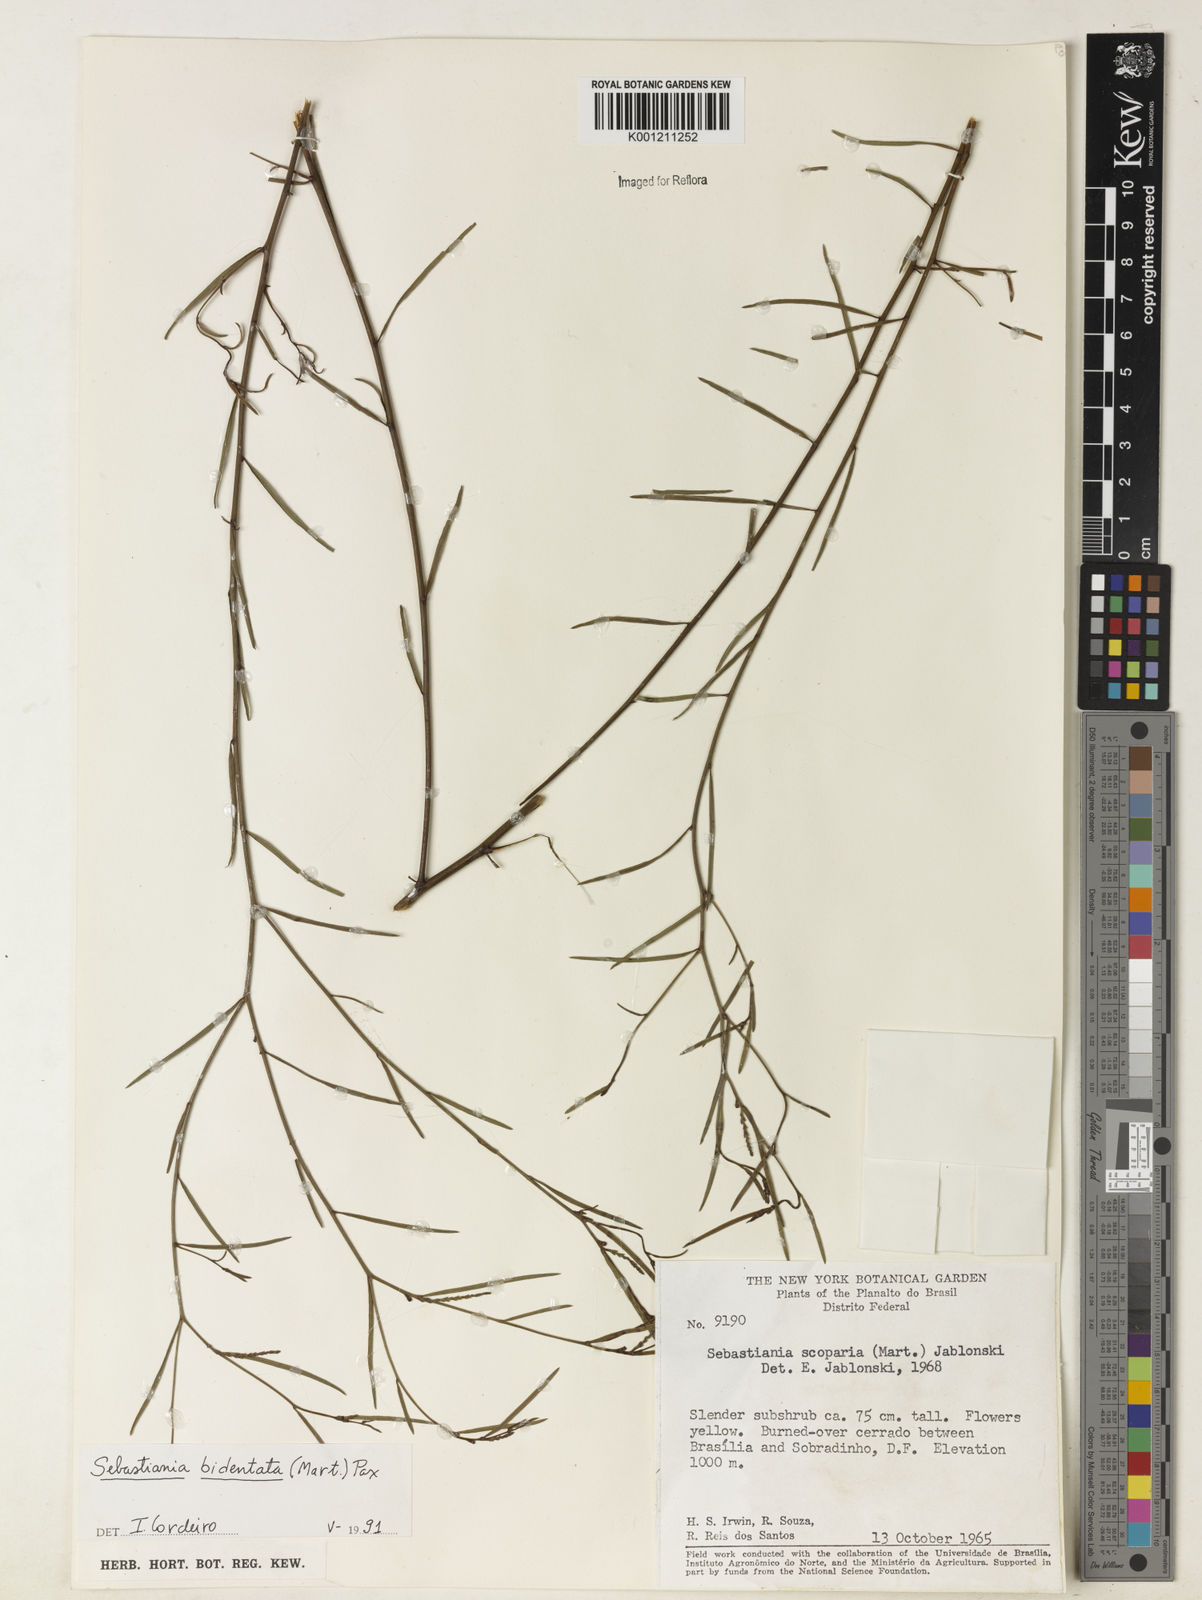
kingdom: Plantae
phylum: Tracheophyta
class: Magnoliopsida
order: Malpighiales
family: Euphorbiaceae
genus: Microstachys
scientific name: Microstachys bidentata
